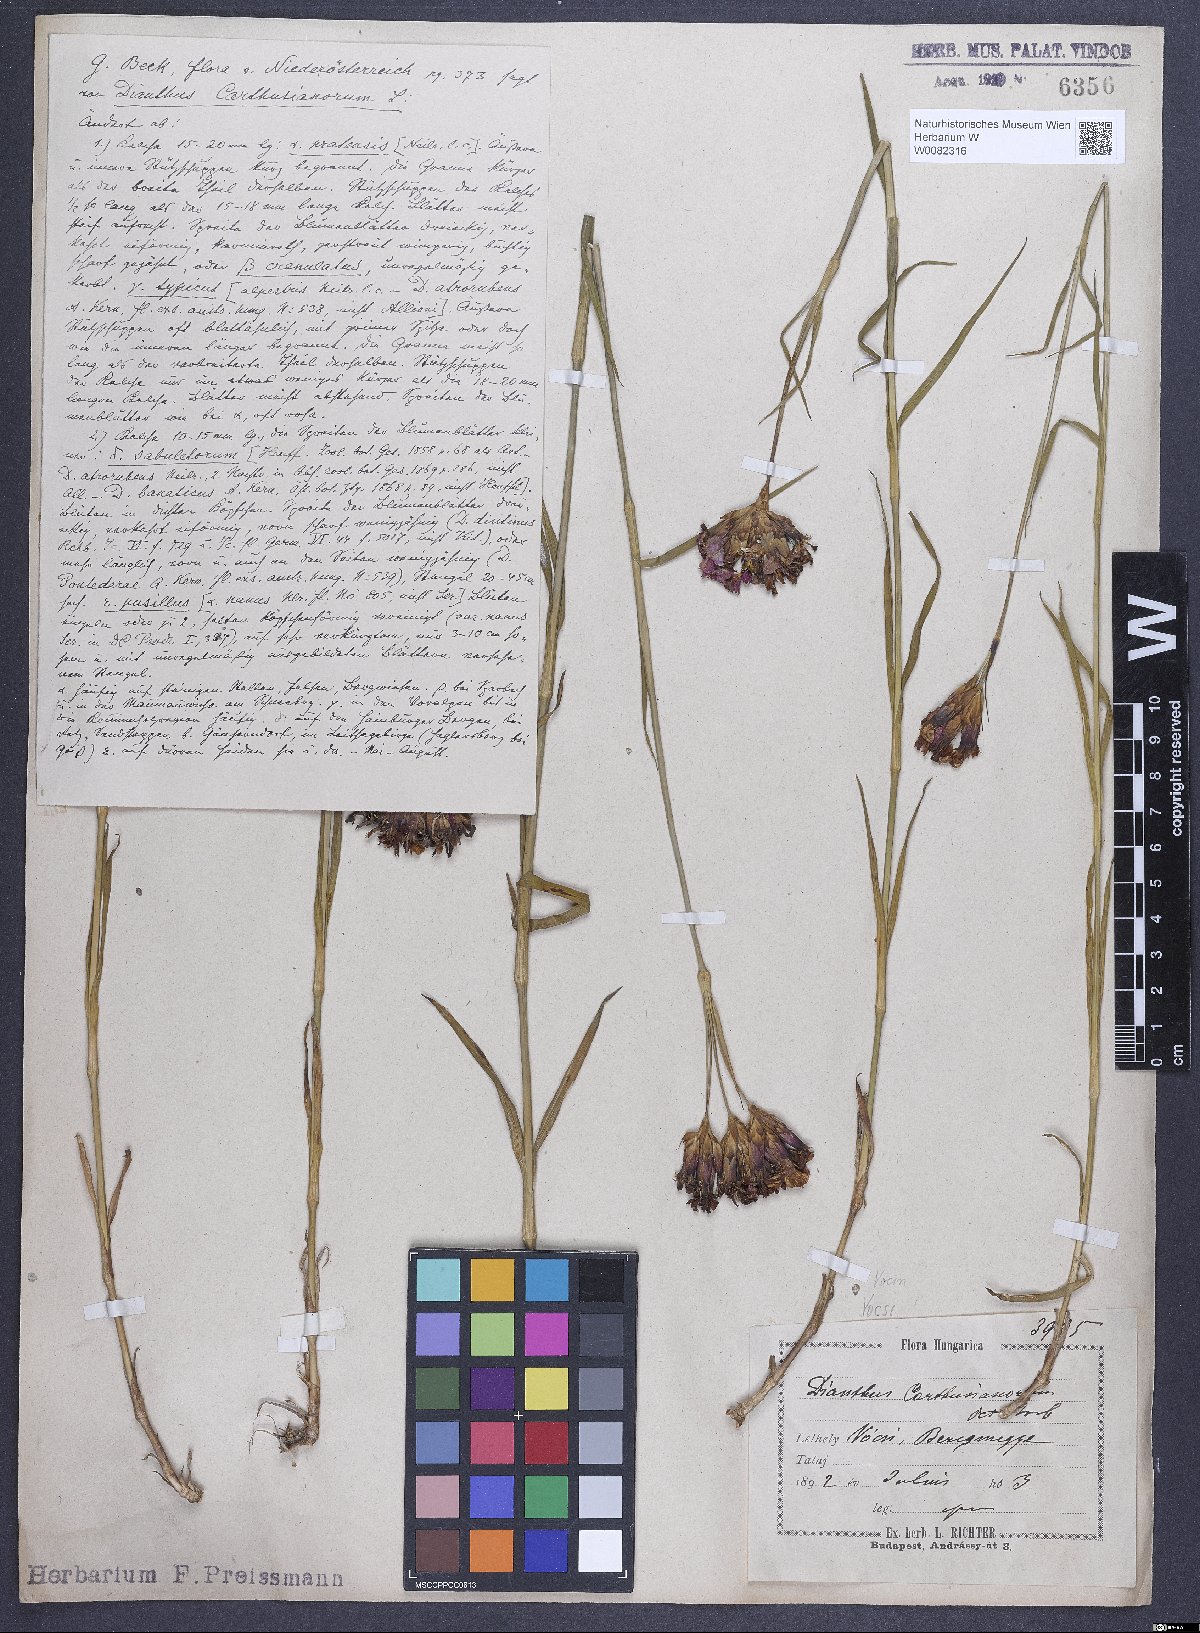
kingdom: Plantae
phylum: Tracheophyta
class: Magnoliopsida
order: Caryophyllales
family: Caryophyllaceae
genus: Dianthus
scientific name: Dianthus carthusianorum
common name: Carthusian pink
